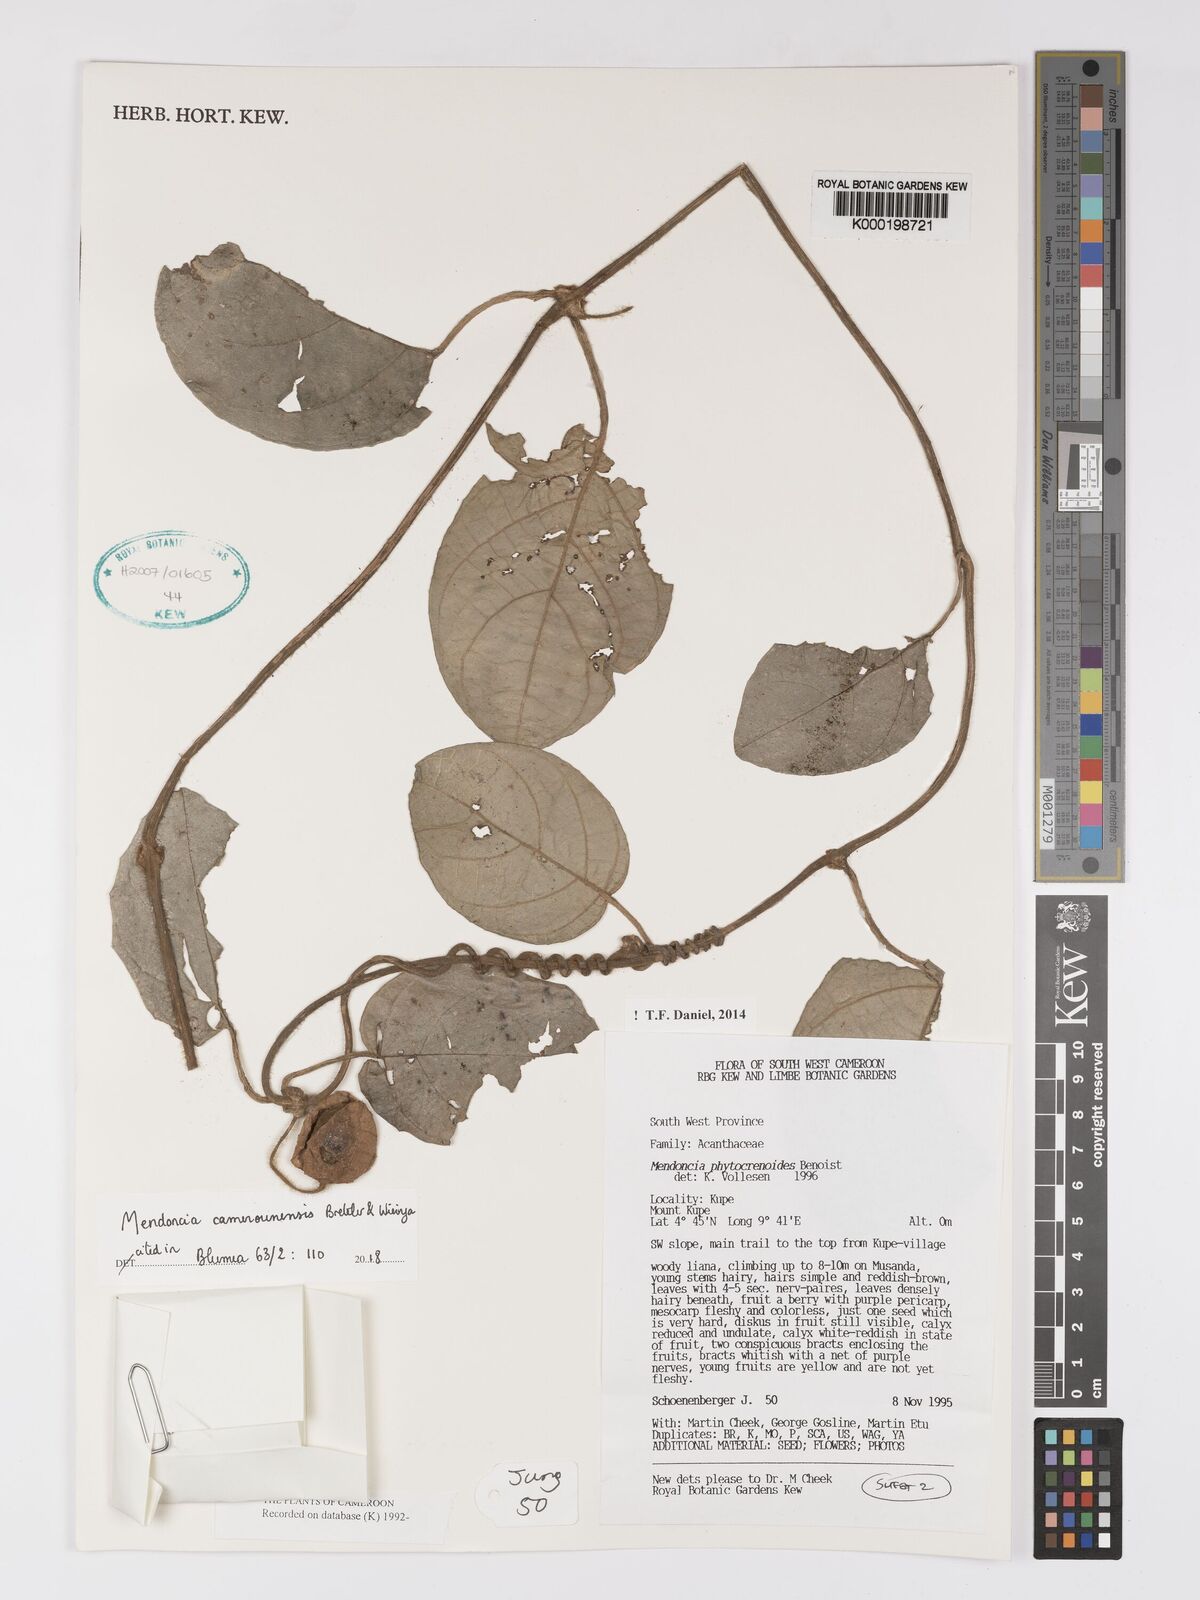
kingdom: Plantae
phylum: Tracheophyta
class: Magnoliopsida
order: Lamiales
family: Acanthaceae
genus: Mendoncia
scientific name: Mendoncia phytocrenoides
